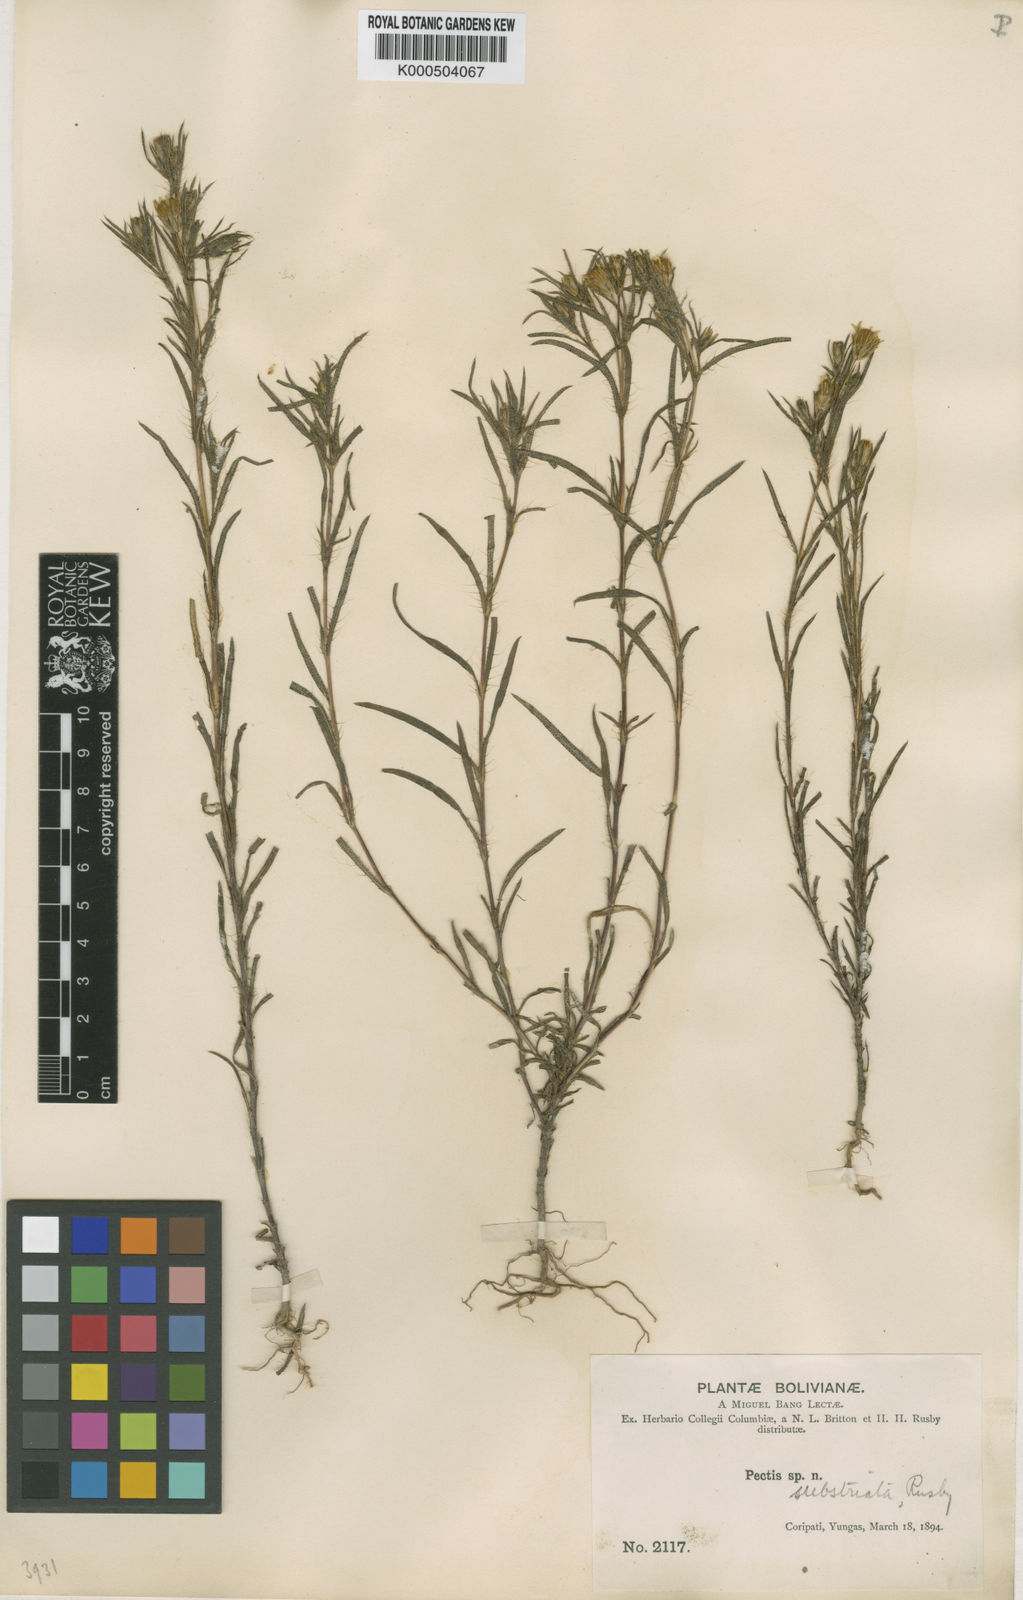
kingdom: Plantae
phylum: Tracheophyta
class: Magnoliopsida
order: Asterales
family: Asteraceae
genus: Pectis
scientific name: Pectis substriata
